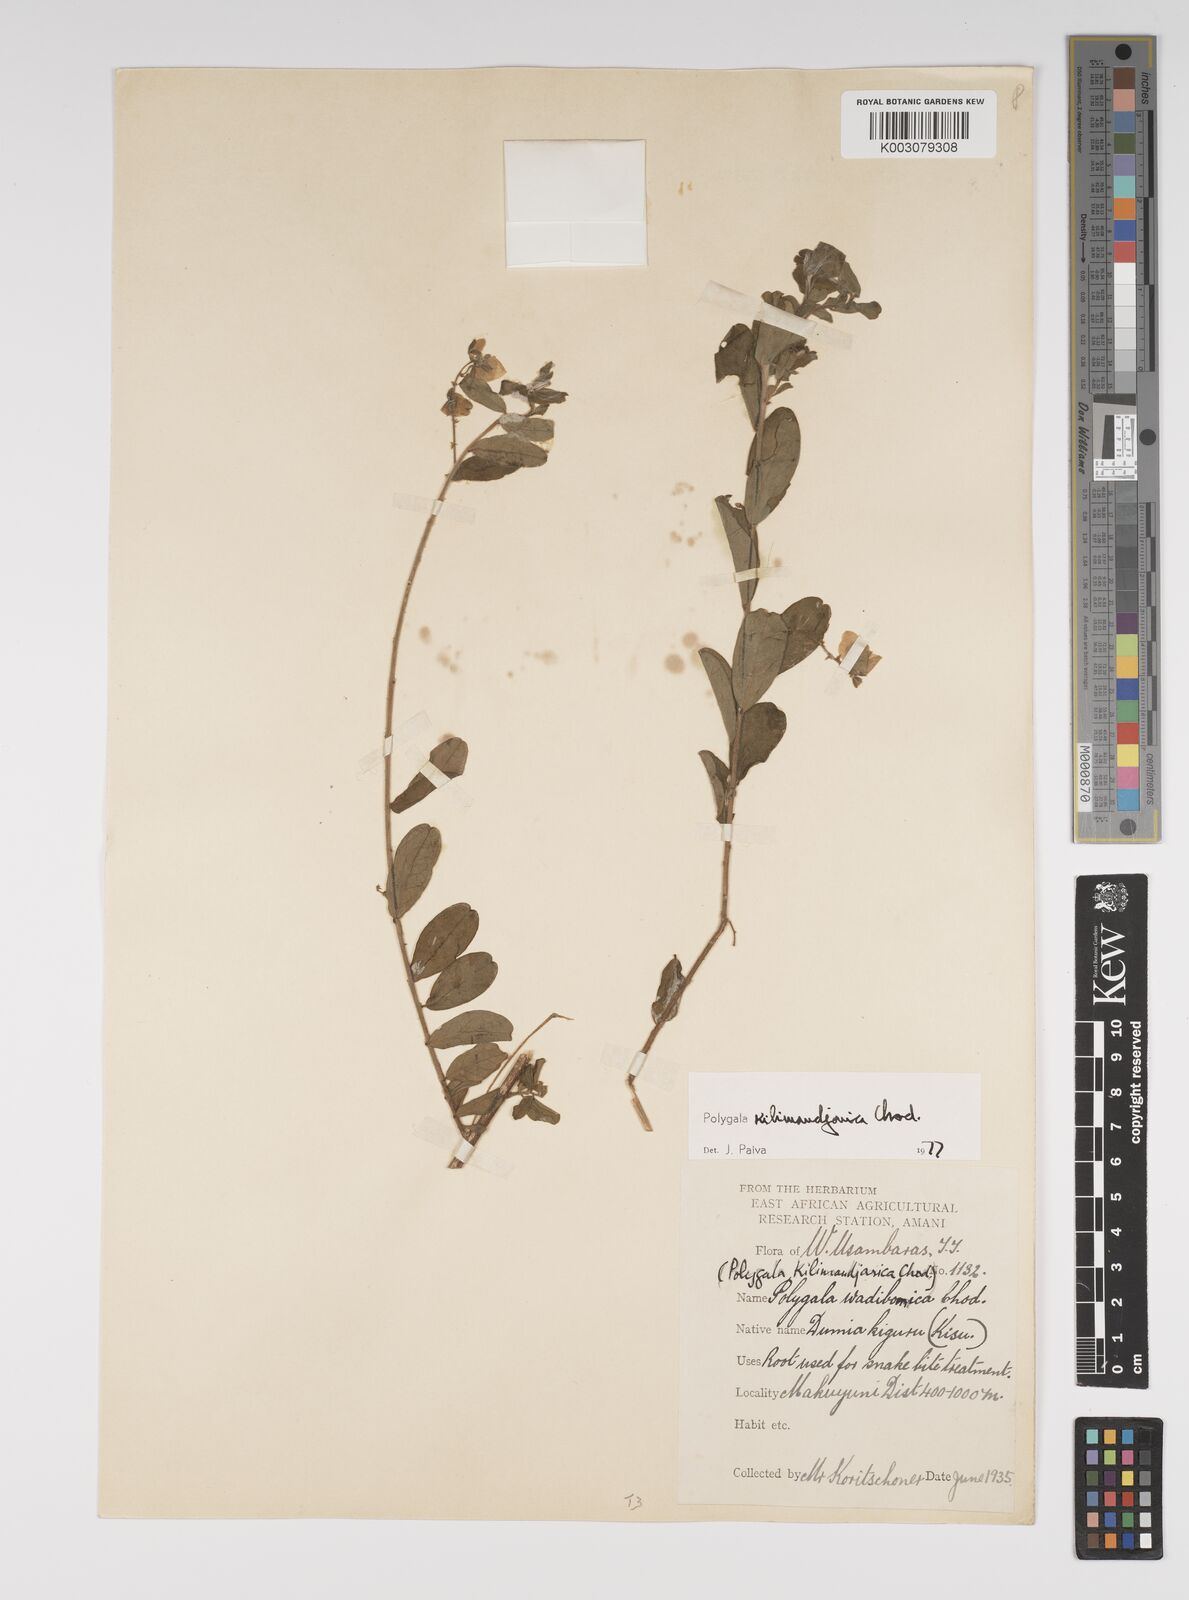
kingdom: Plantae
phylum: Tracheophyta
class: Magnoliopsida
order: Fabales
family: Polygalaceae
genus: Polygala
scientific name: Polygala kilimandjarica
